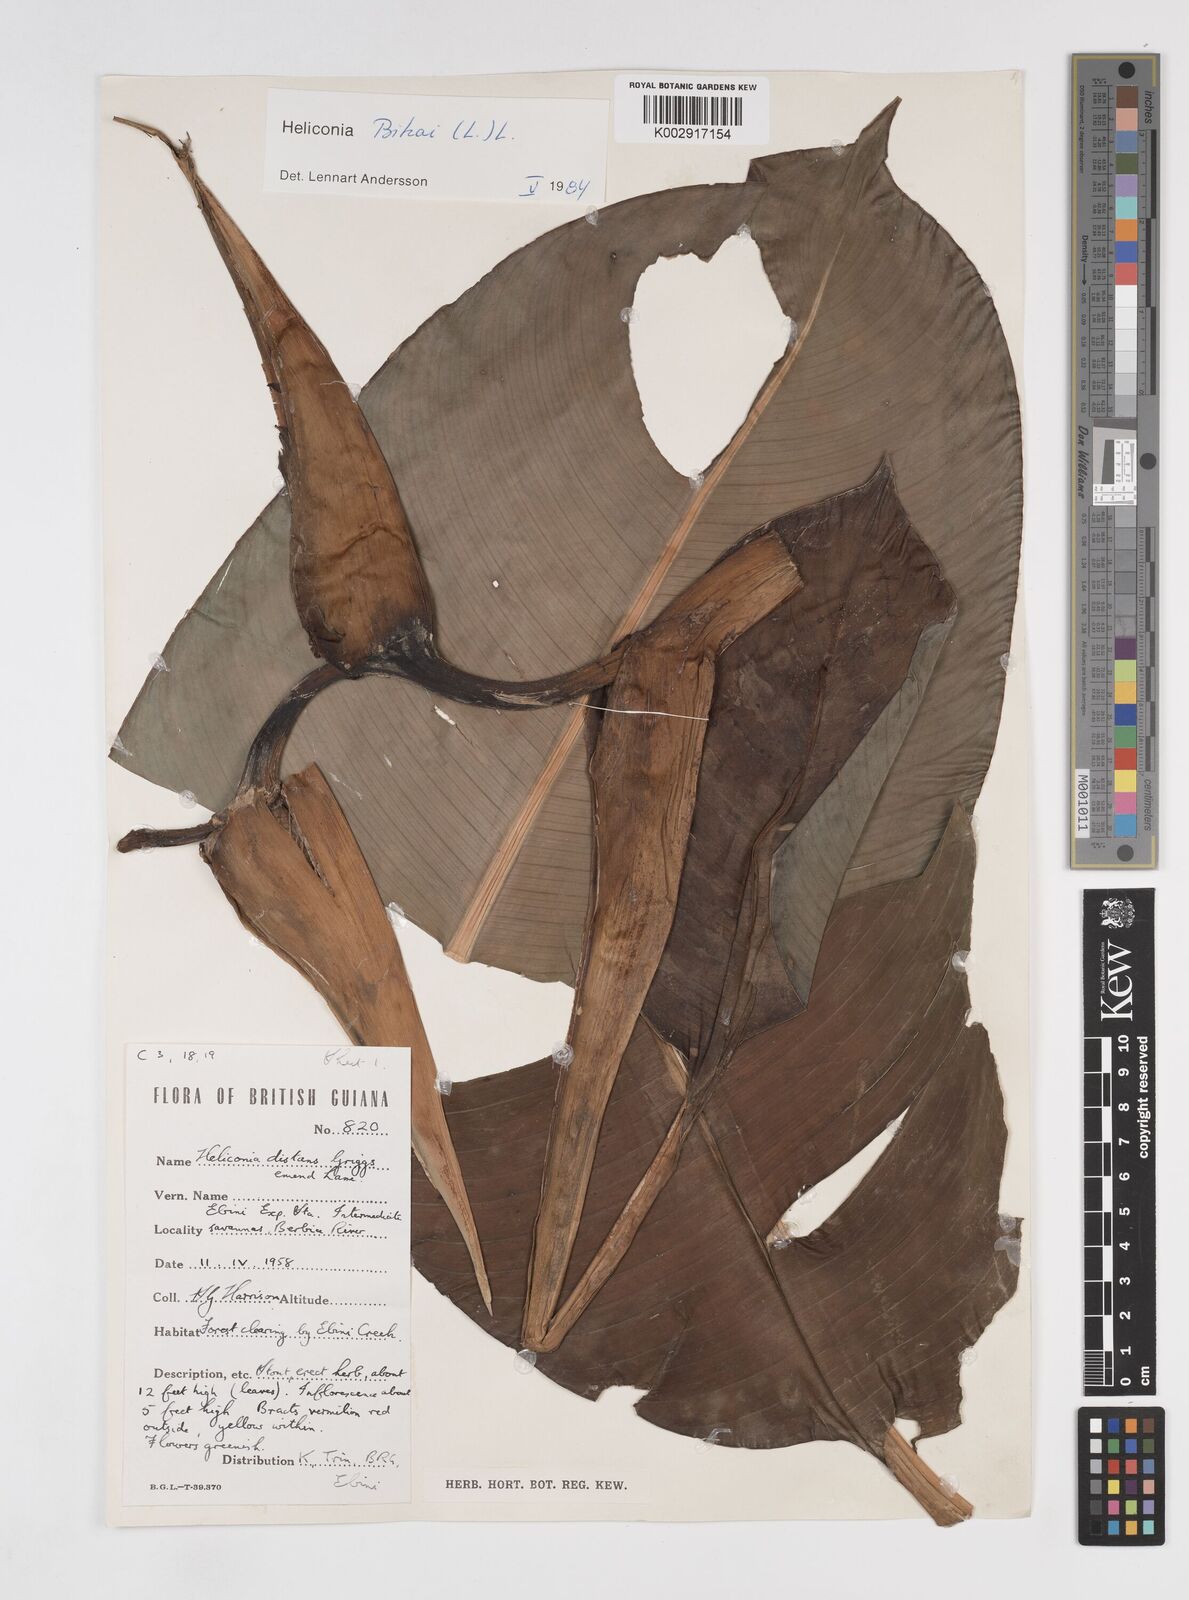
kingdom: Plantae
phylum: Tracheophyta
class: Liliopsida
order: Zingiberales
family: Heliconiaceae
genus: Heliconia
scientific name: Heliconia bihai
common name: Macaw flower
